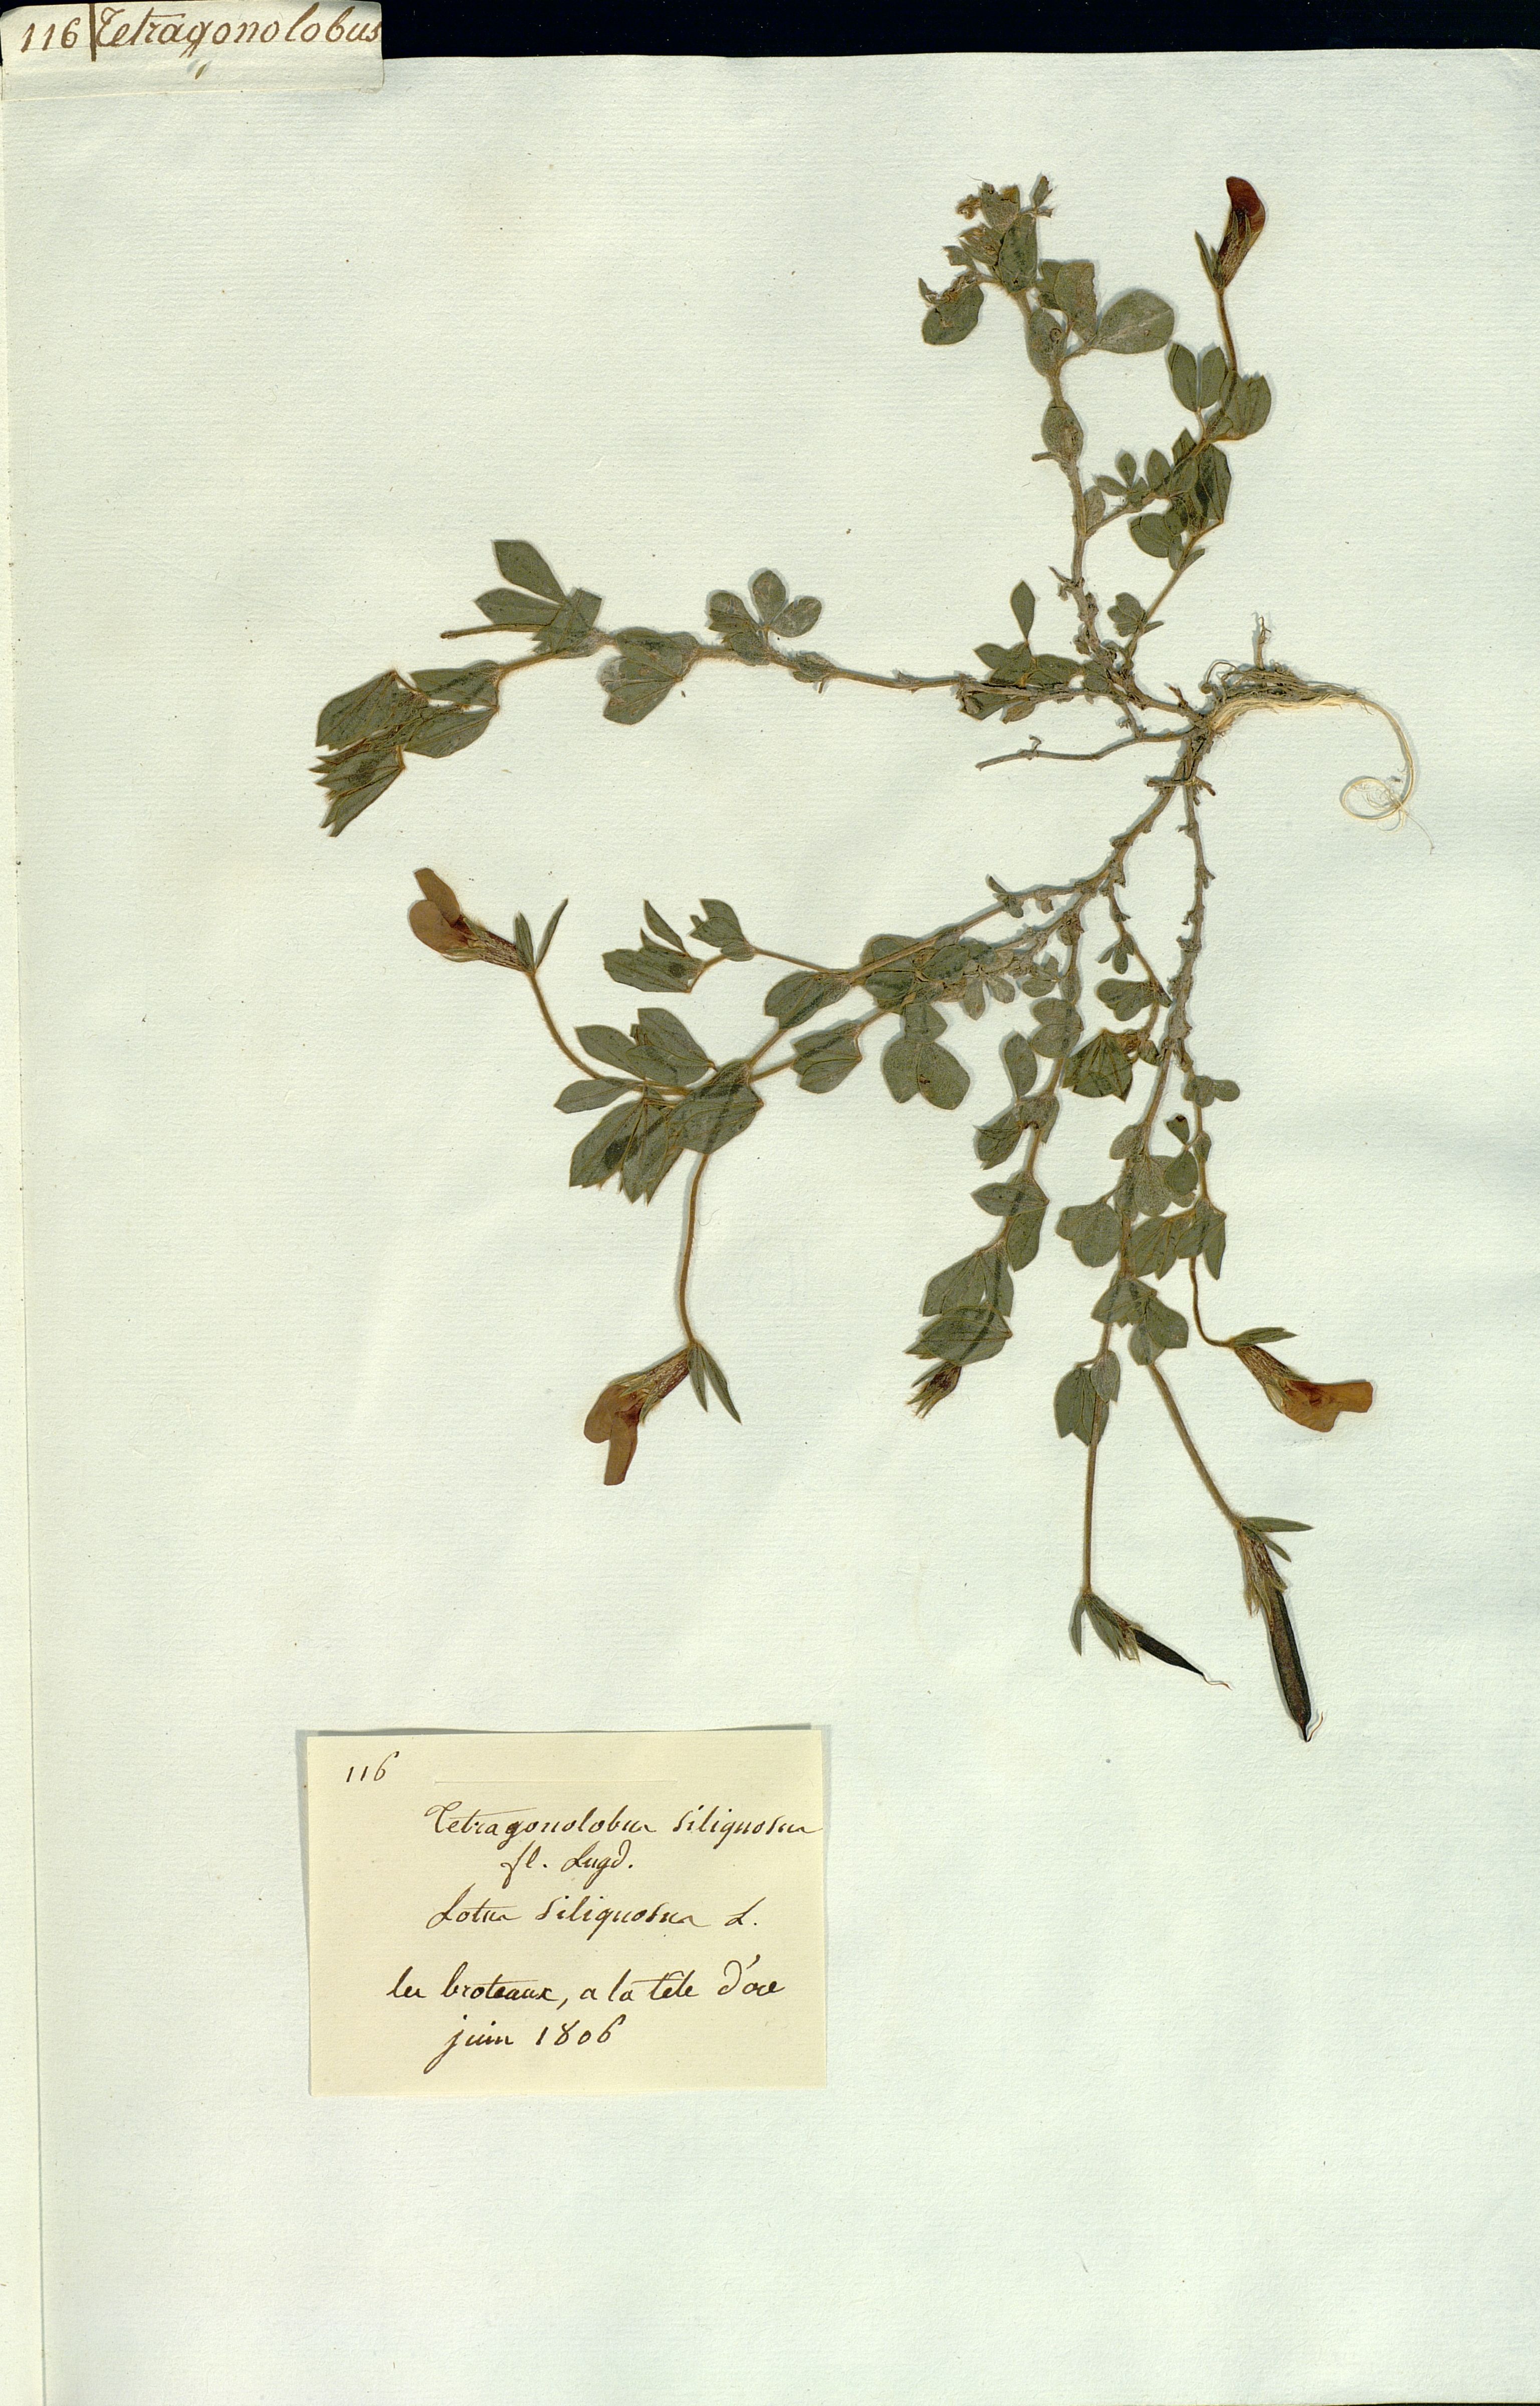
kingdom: Plantae
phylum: Tracheophyta
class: Magnoliopsida
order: Fabales
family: Fabaceae
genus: Lathyrus
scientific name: Lathyrus inconspicuus
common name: Inconspicuous pea
